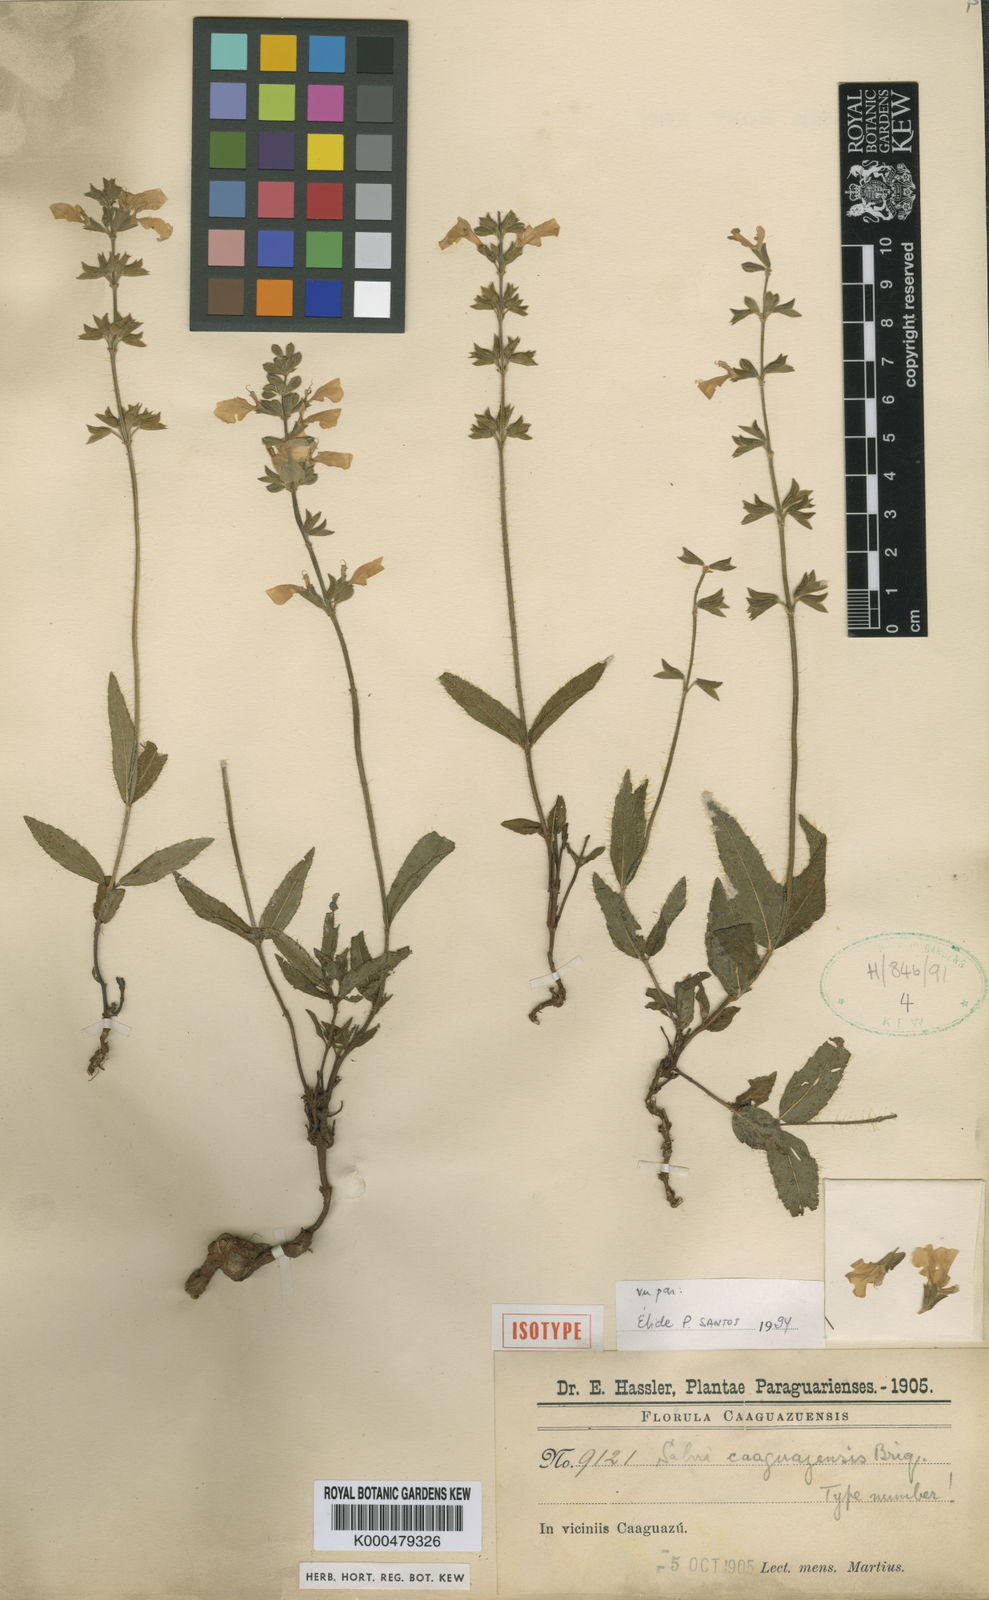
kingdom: Plantae
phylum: Tracheophyta
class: Magnoliopsida
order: Lamiales
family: Lamiaceae
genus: Salvia
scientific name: Salvia caaguazuensis
